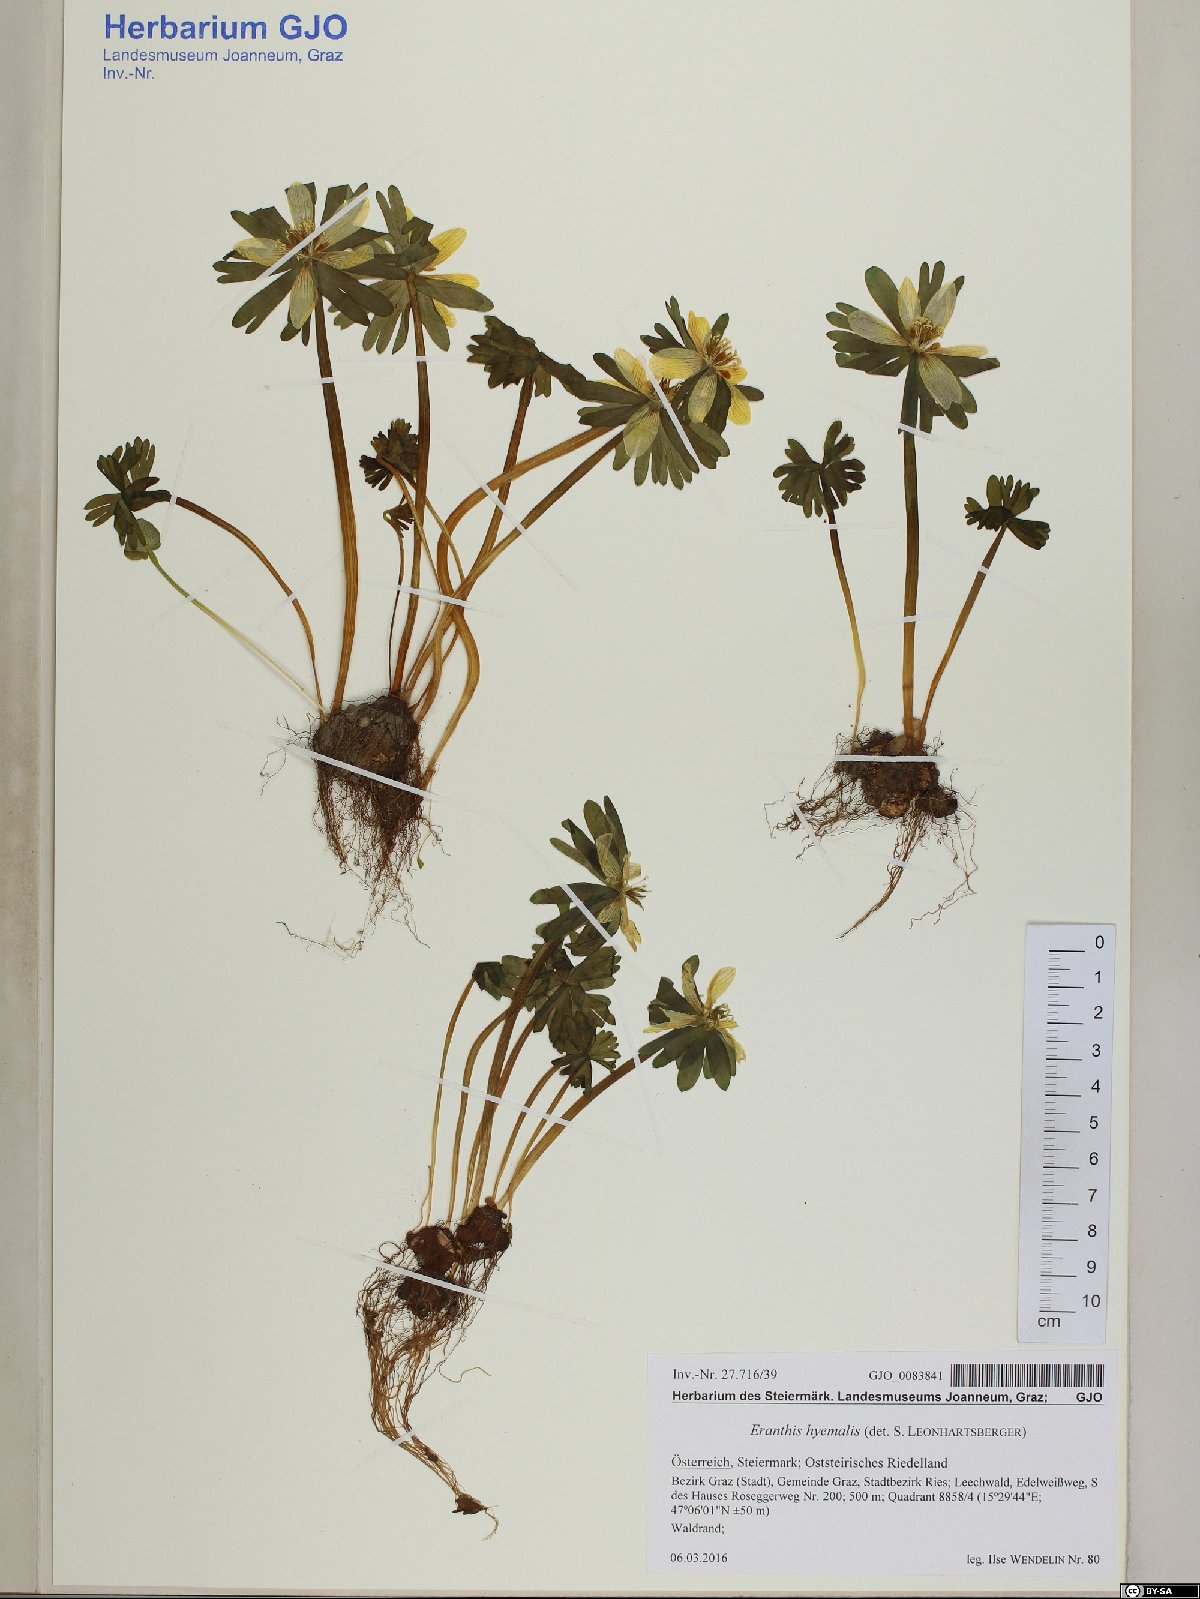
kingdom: Plantae
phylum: Tracheophyta
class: Magnoliopsida
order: Ranunculales
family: Ranunculaceae
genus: Eranthis
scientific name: Eranthis hyemalis
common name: Winter aconite
